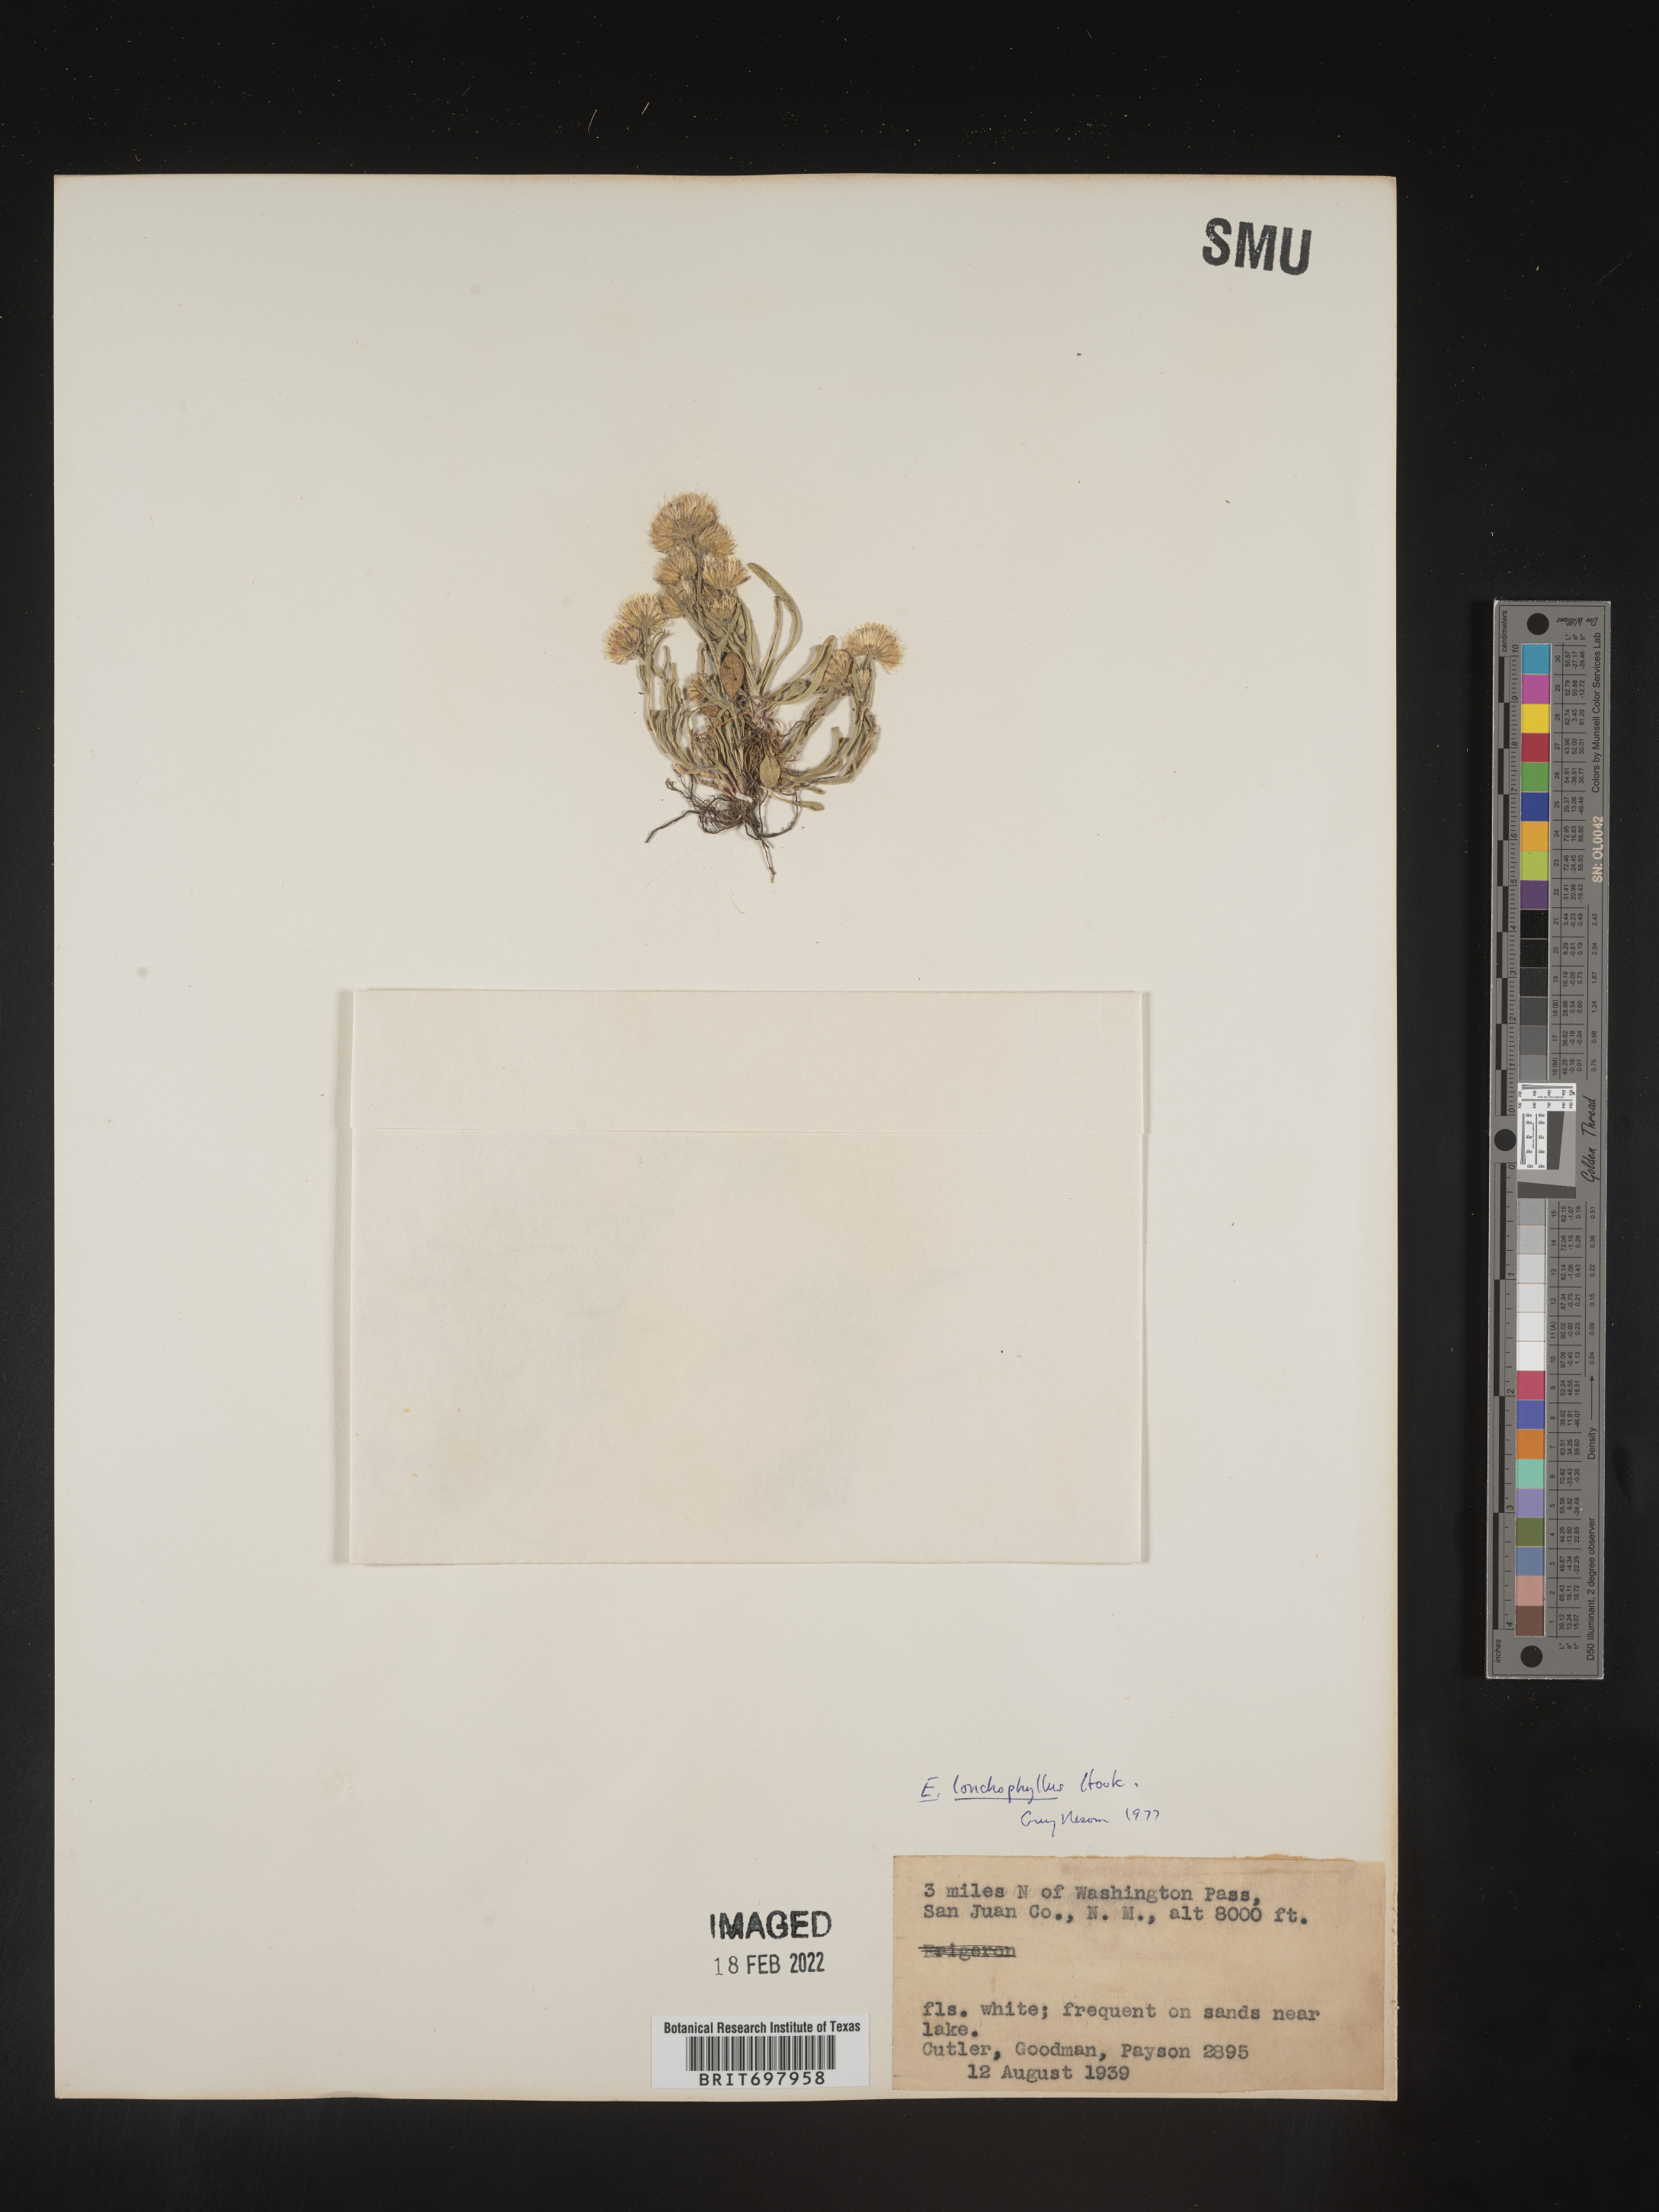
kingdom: Plantae
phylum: Tracheophyta
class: Magnoliopsida
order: Asterales
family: Asteraceae
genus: Erigeron
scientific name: Erigeron lonchophyllus
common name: Short-ray fleabane
